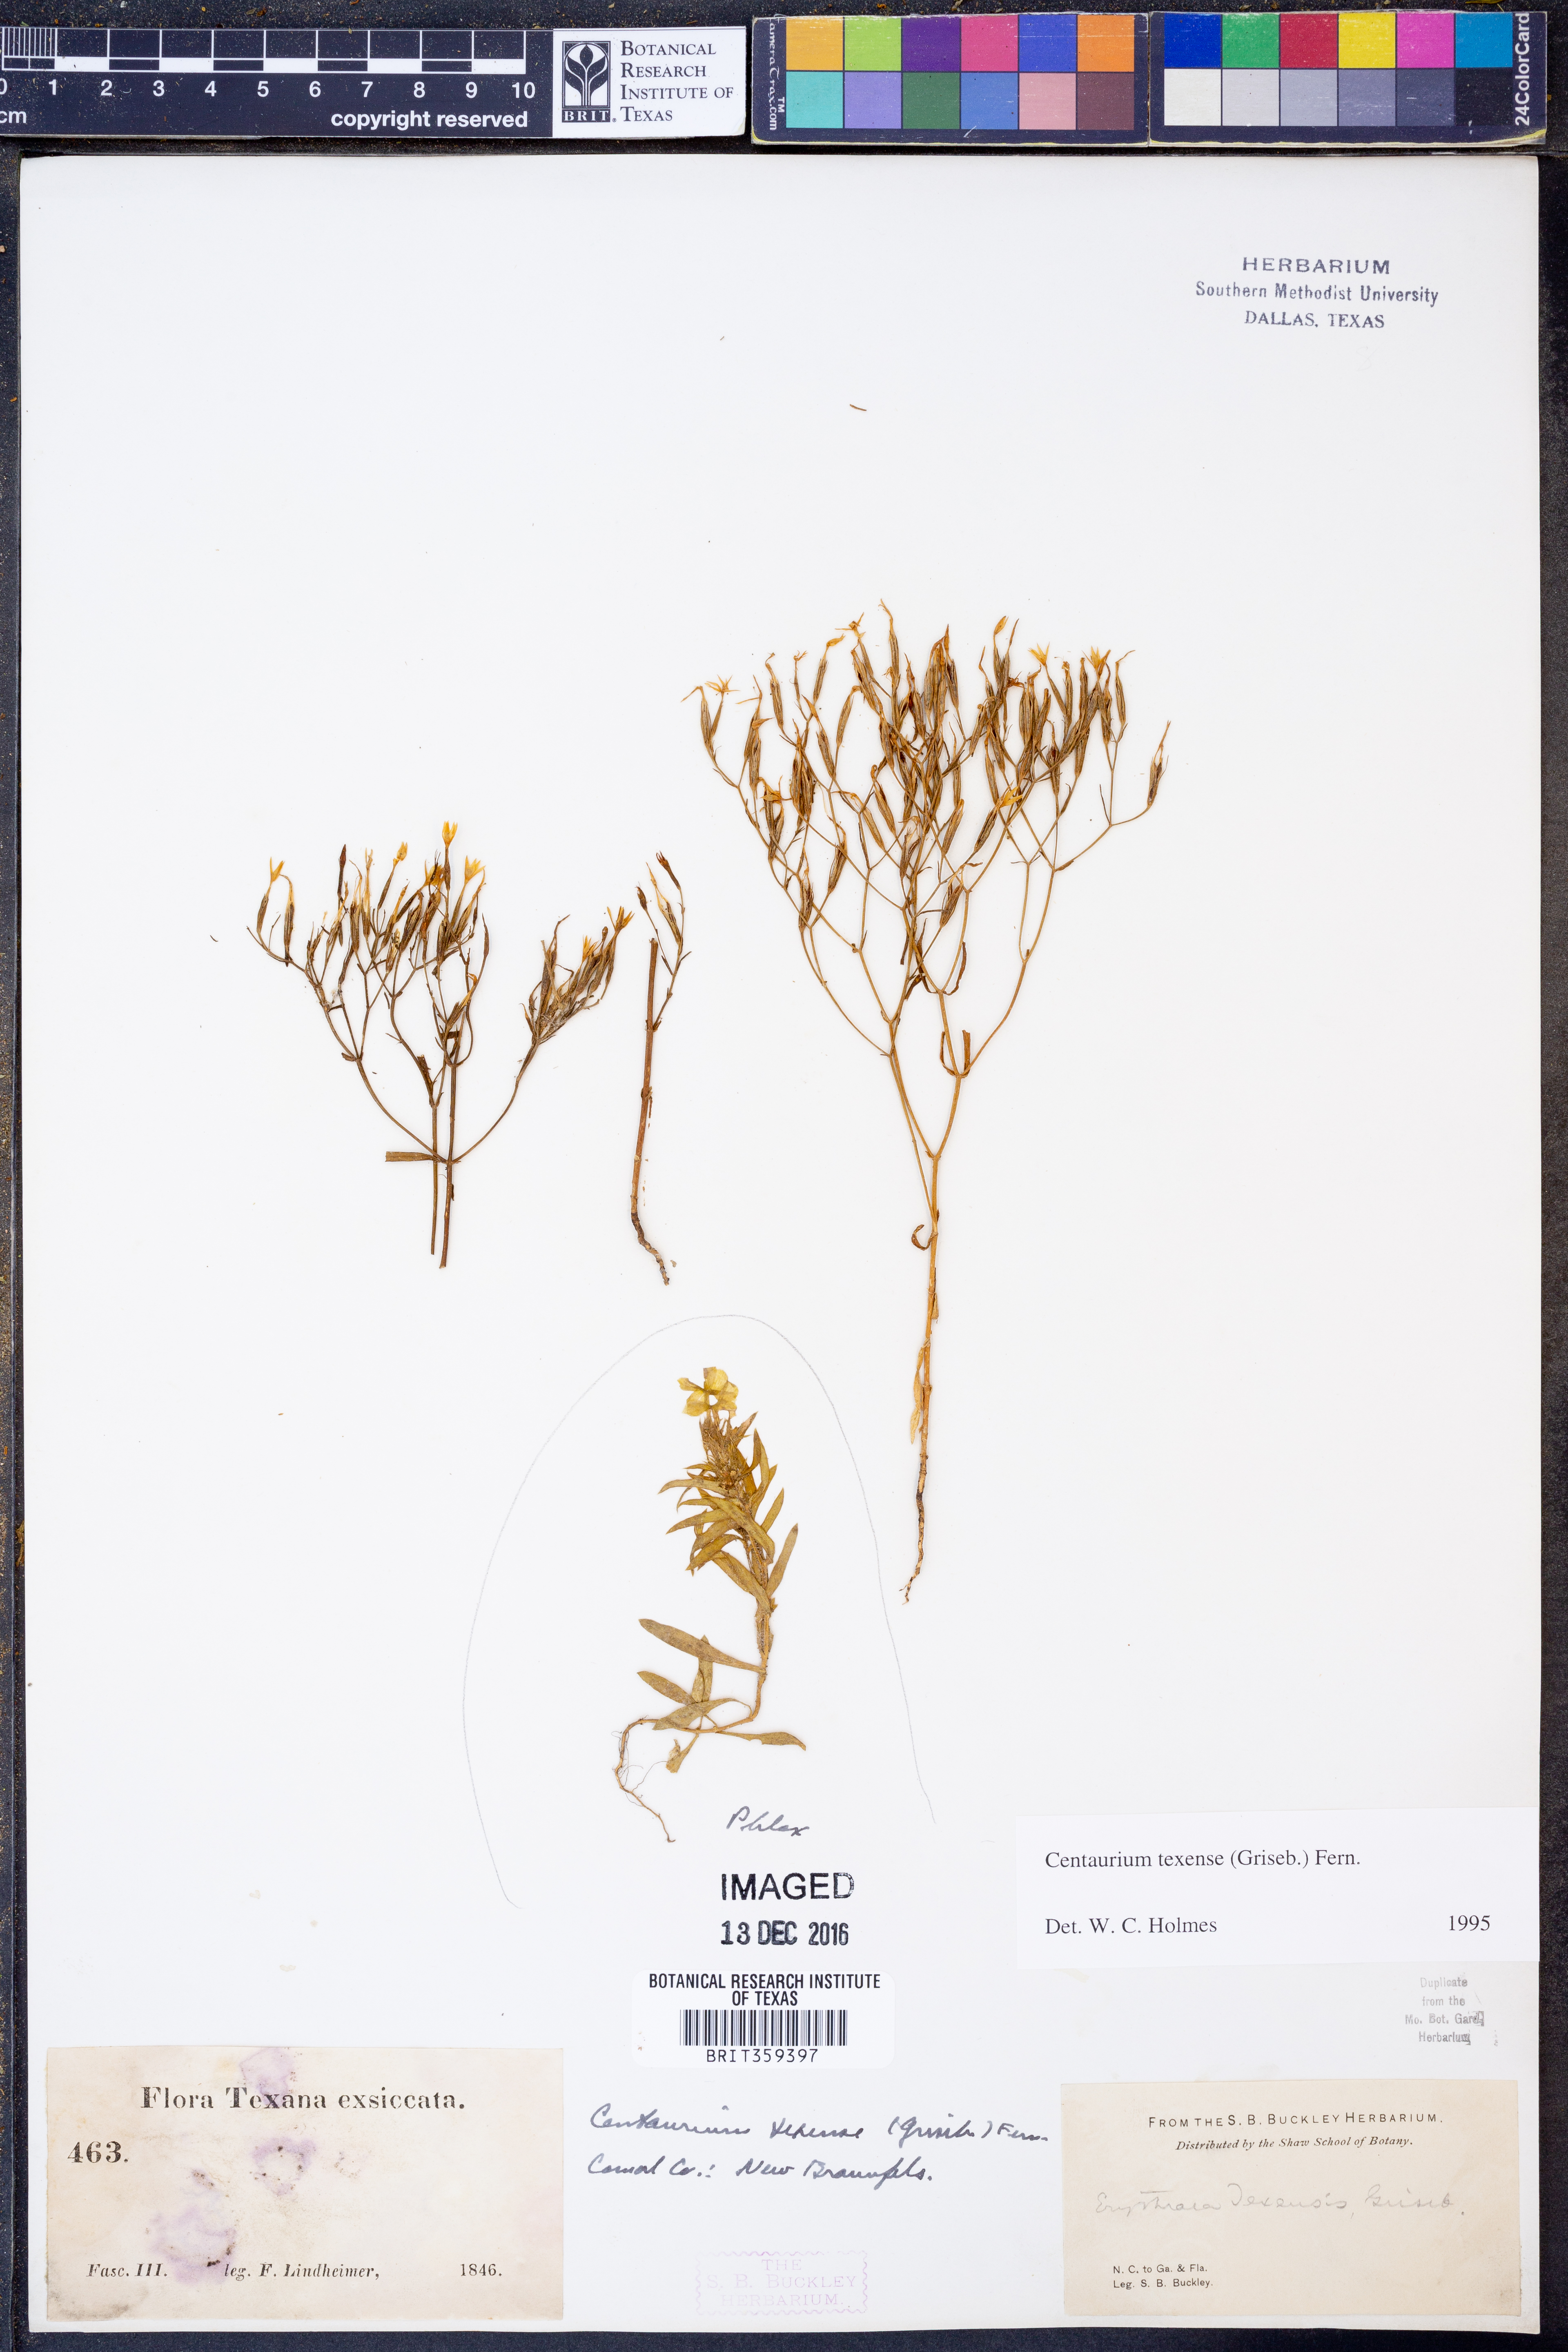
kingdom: Plantae
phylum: Tracheophyta
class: Magnoliopsida
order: Gentianales
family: Gentianaceae
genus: Zeltnera
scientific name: Zeltnera texensis
